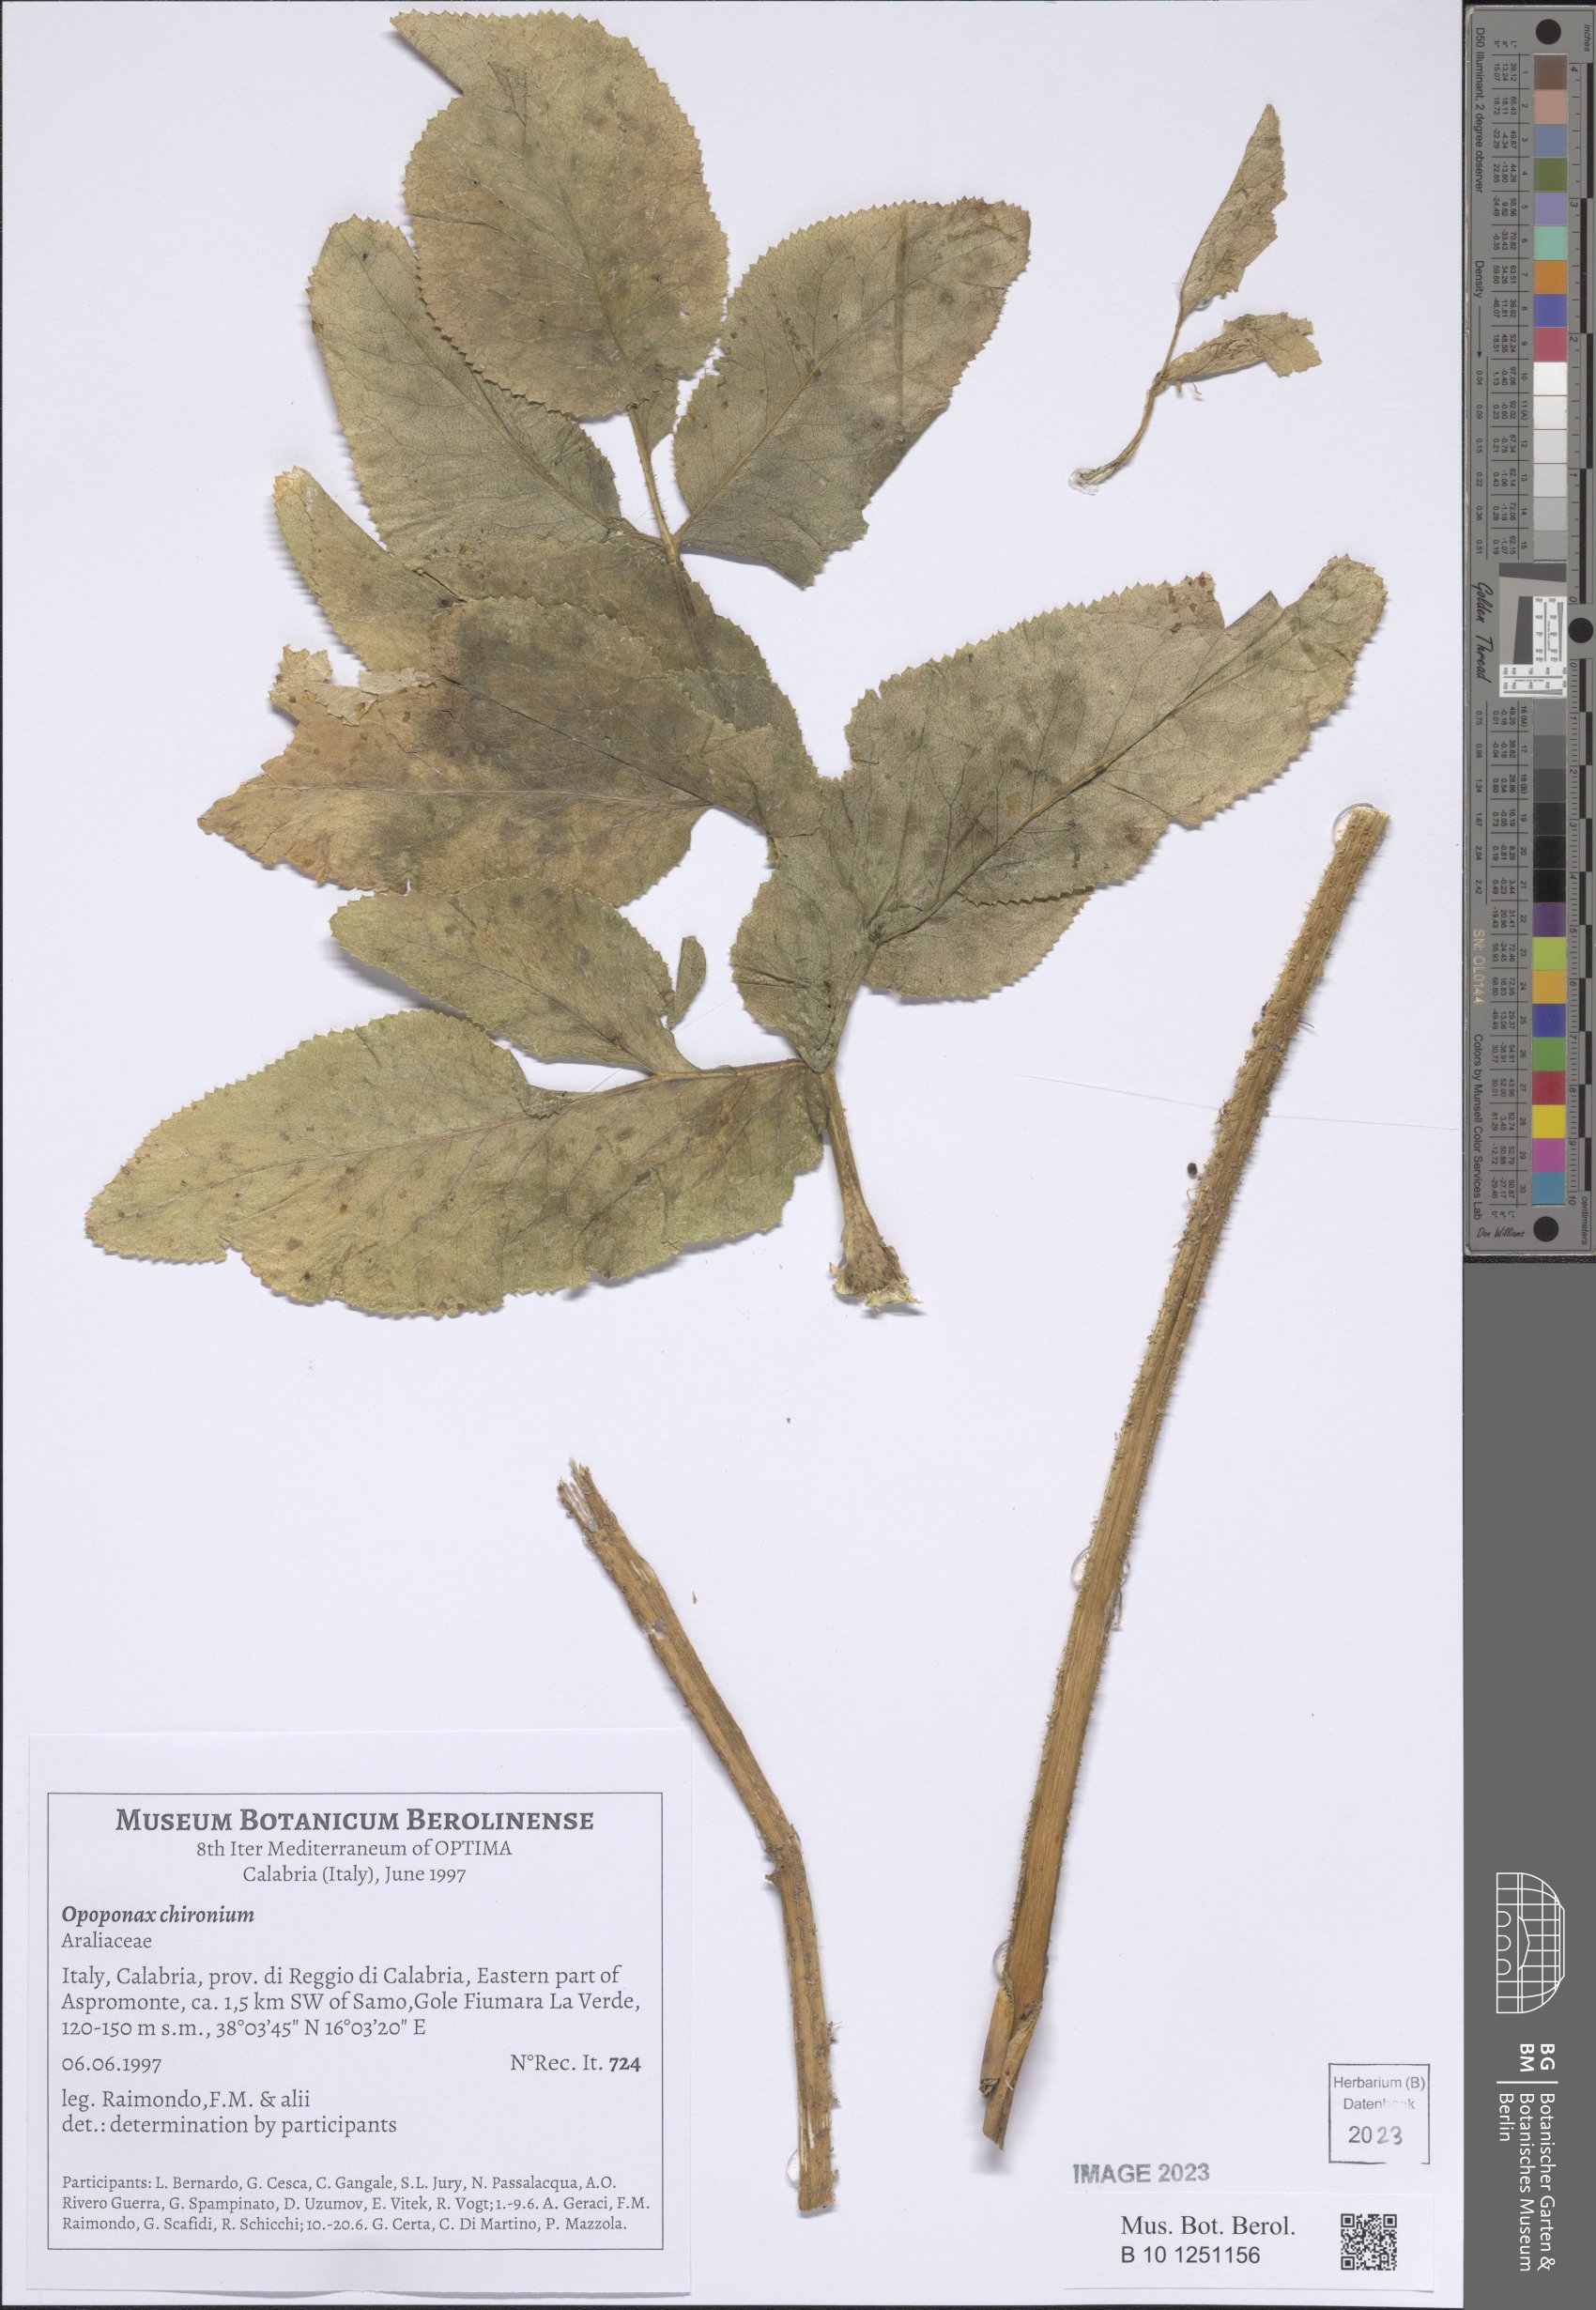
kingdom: Plantae
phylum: Tracheophyta
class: Magnoliopsida
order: Apiales
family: Apiaceae
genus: Opopanax
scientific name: Opopanax chironium
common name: Hercules-all-heal
